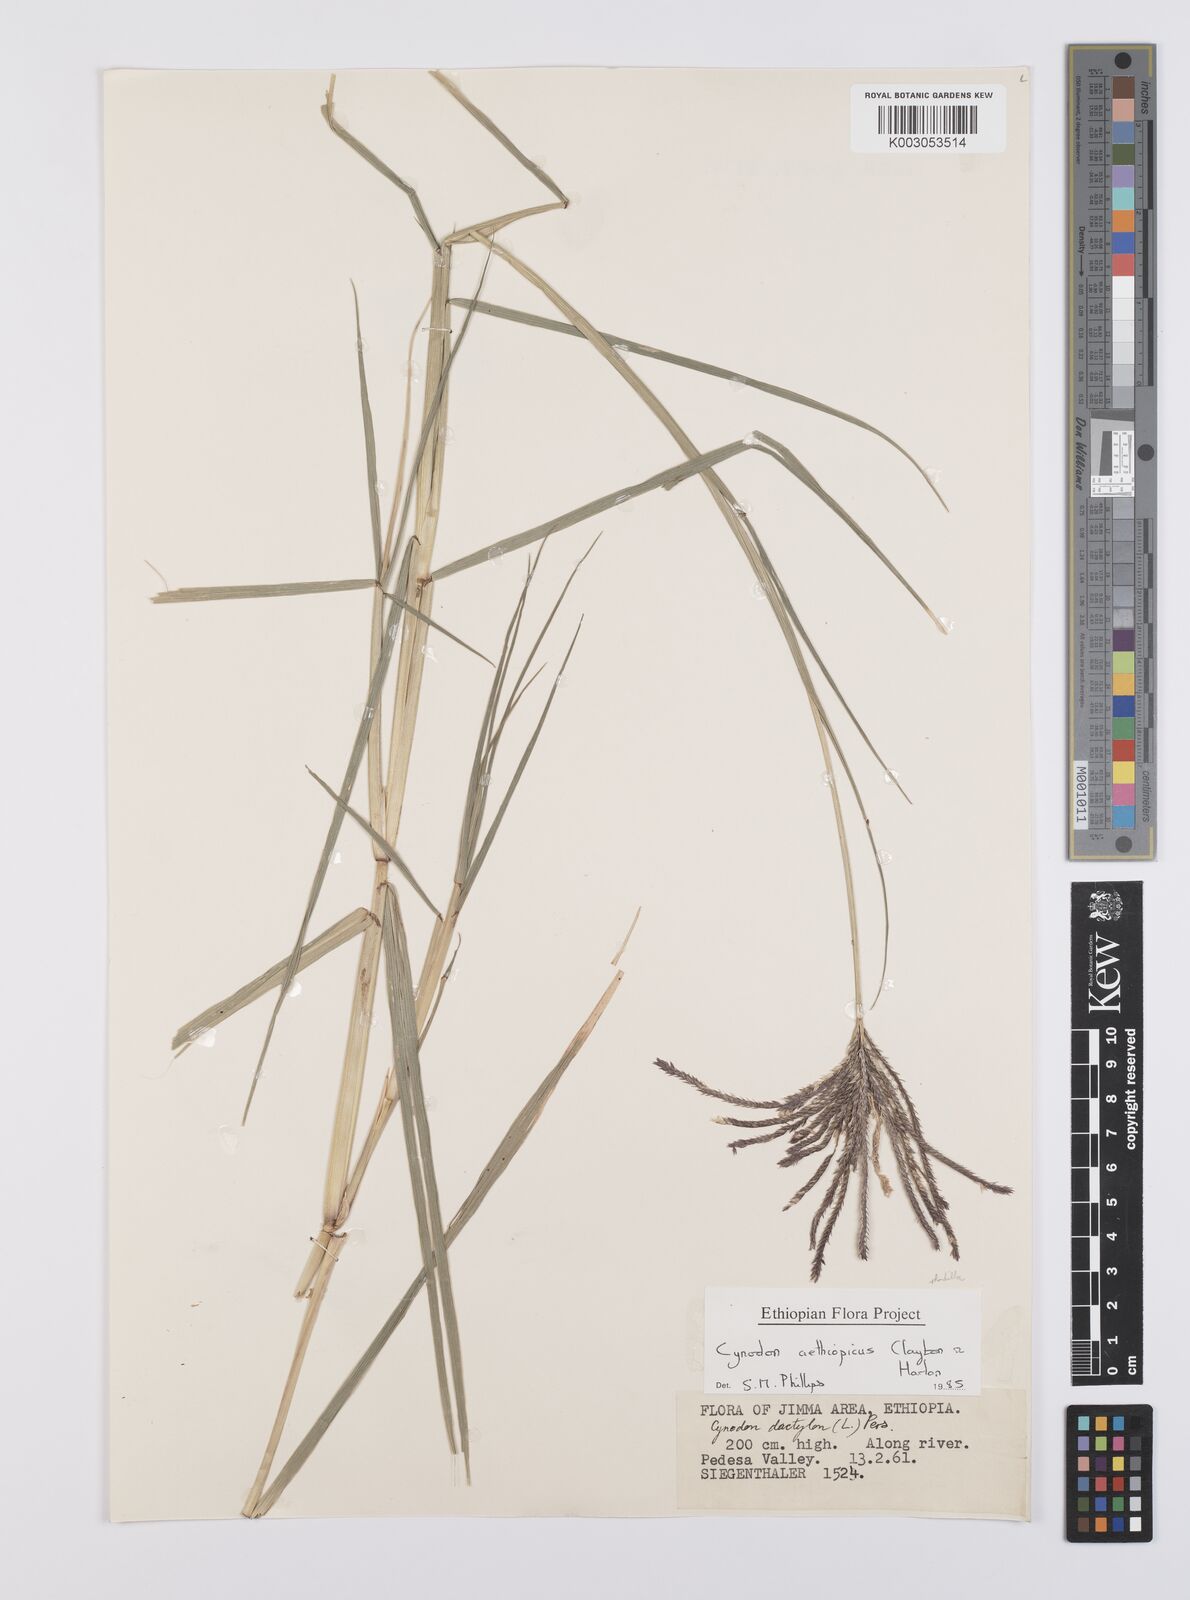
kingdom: Plantae
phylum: Tracheophyta
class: Liliopsida
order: Poales
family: Poaceae
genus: Cynodon
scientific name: Cynodon aethiopicus
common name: Ethiopian dogstooth grass
